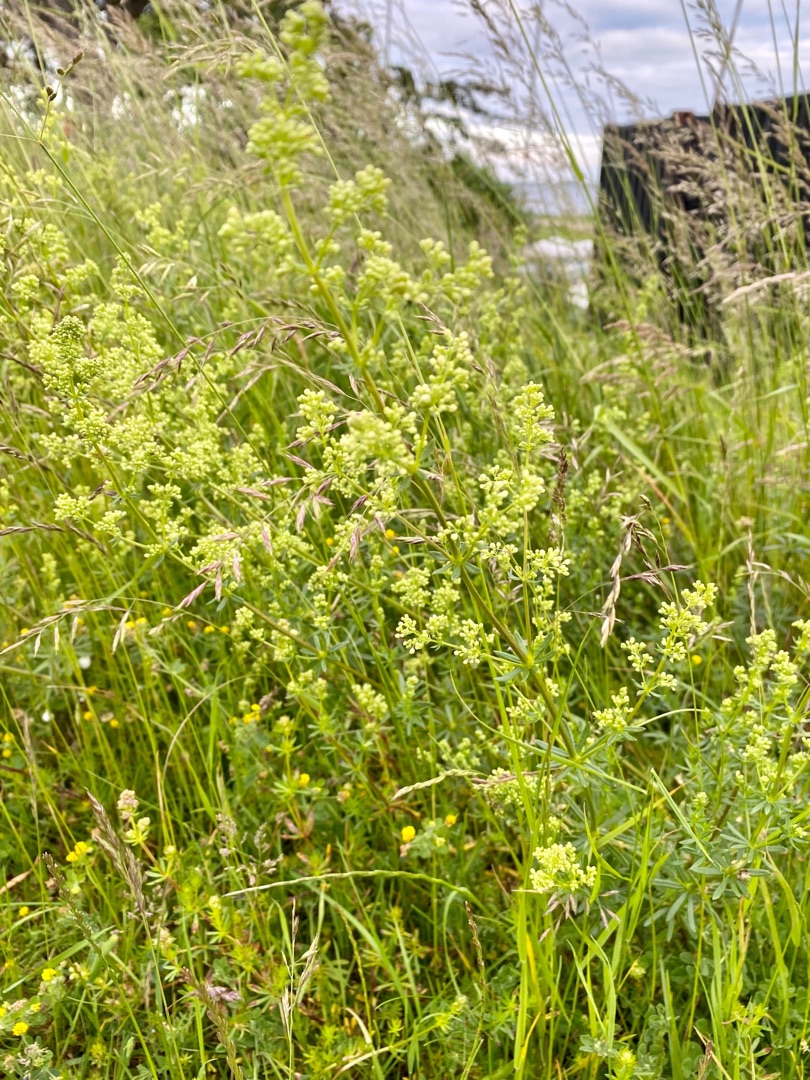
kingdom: Plantae
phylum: Tracheophyta
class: Magnoliopsida
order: Gentianales
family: Rubiaceae
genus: Galium
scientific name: Galium mollugo
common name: Hvid snerre
